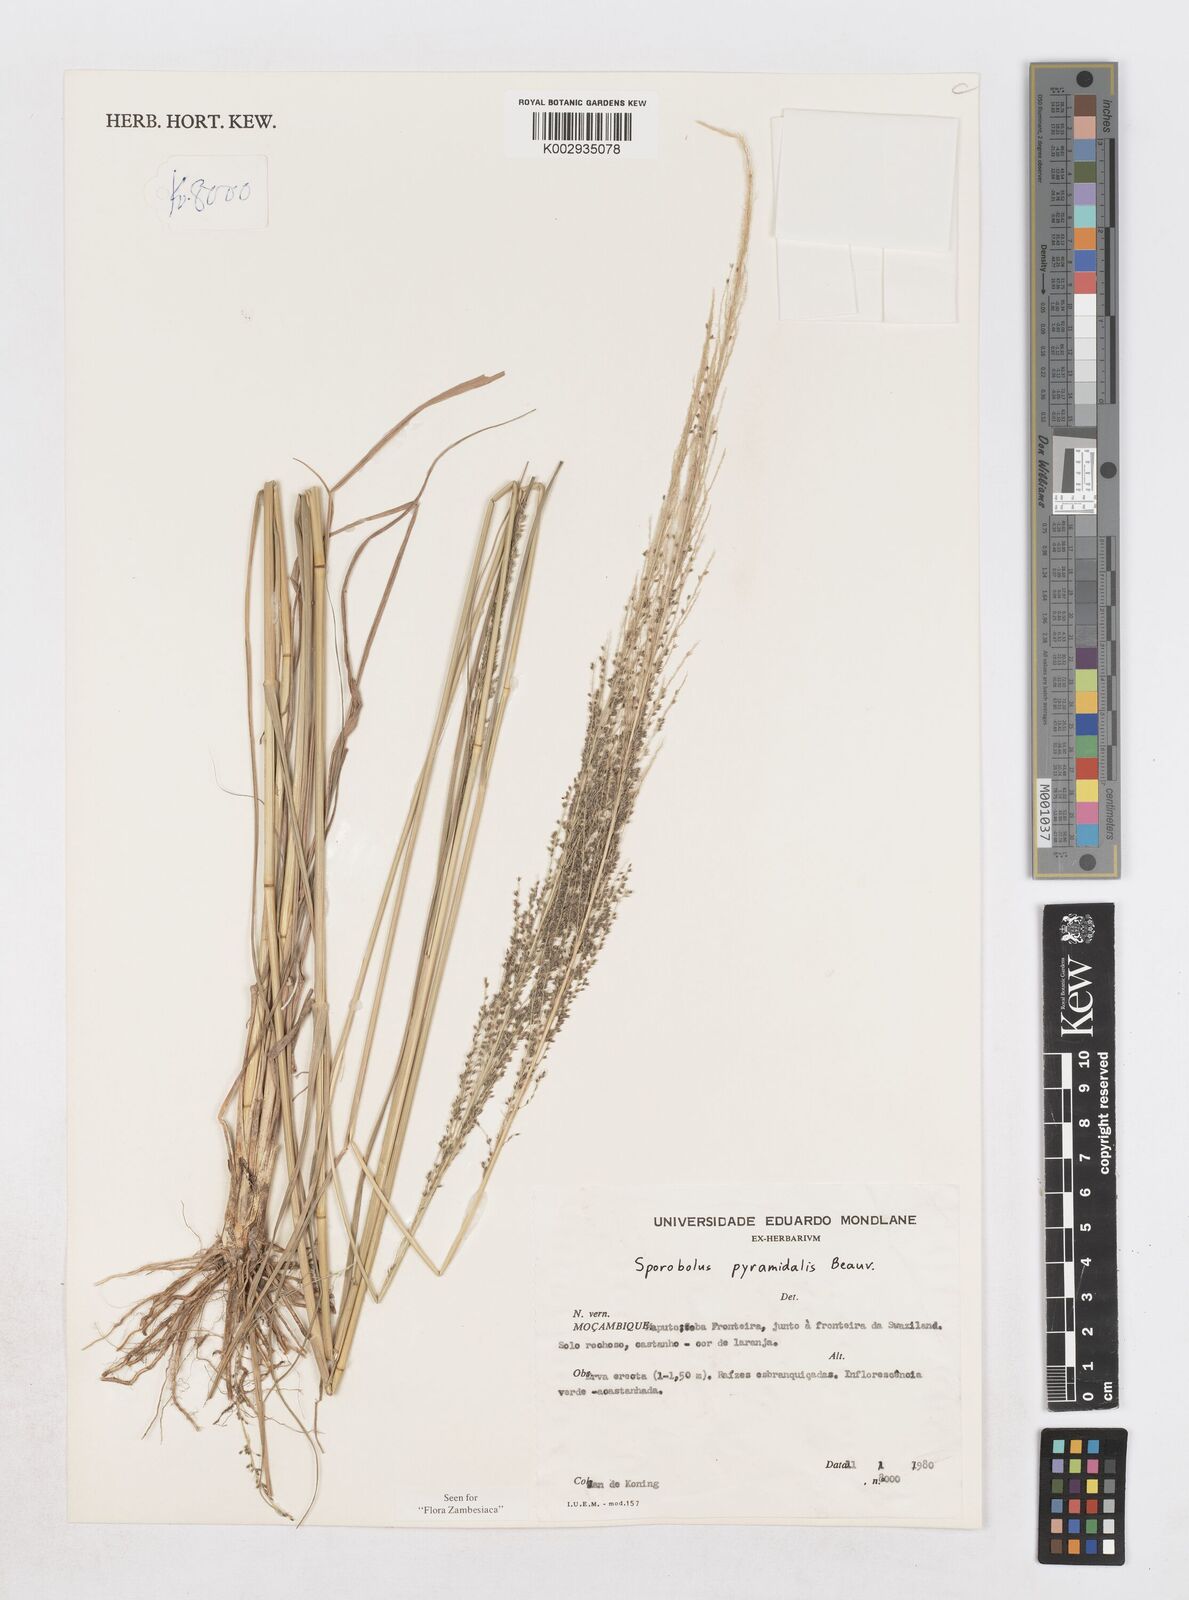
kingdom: Plantae
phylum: Tracheophyta
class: Liliopsida
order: Poales
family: Poaceae
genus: Sporobolus
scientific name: Sporobolus pyramidalis
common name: West indian dropseed
